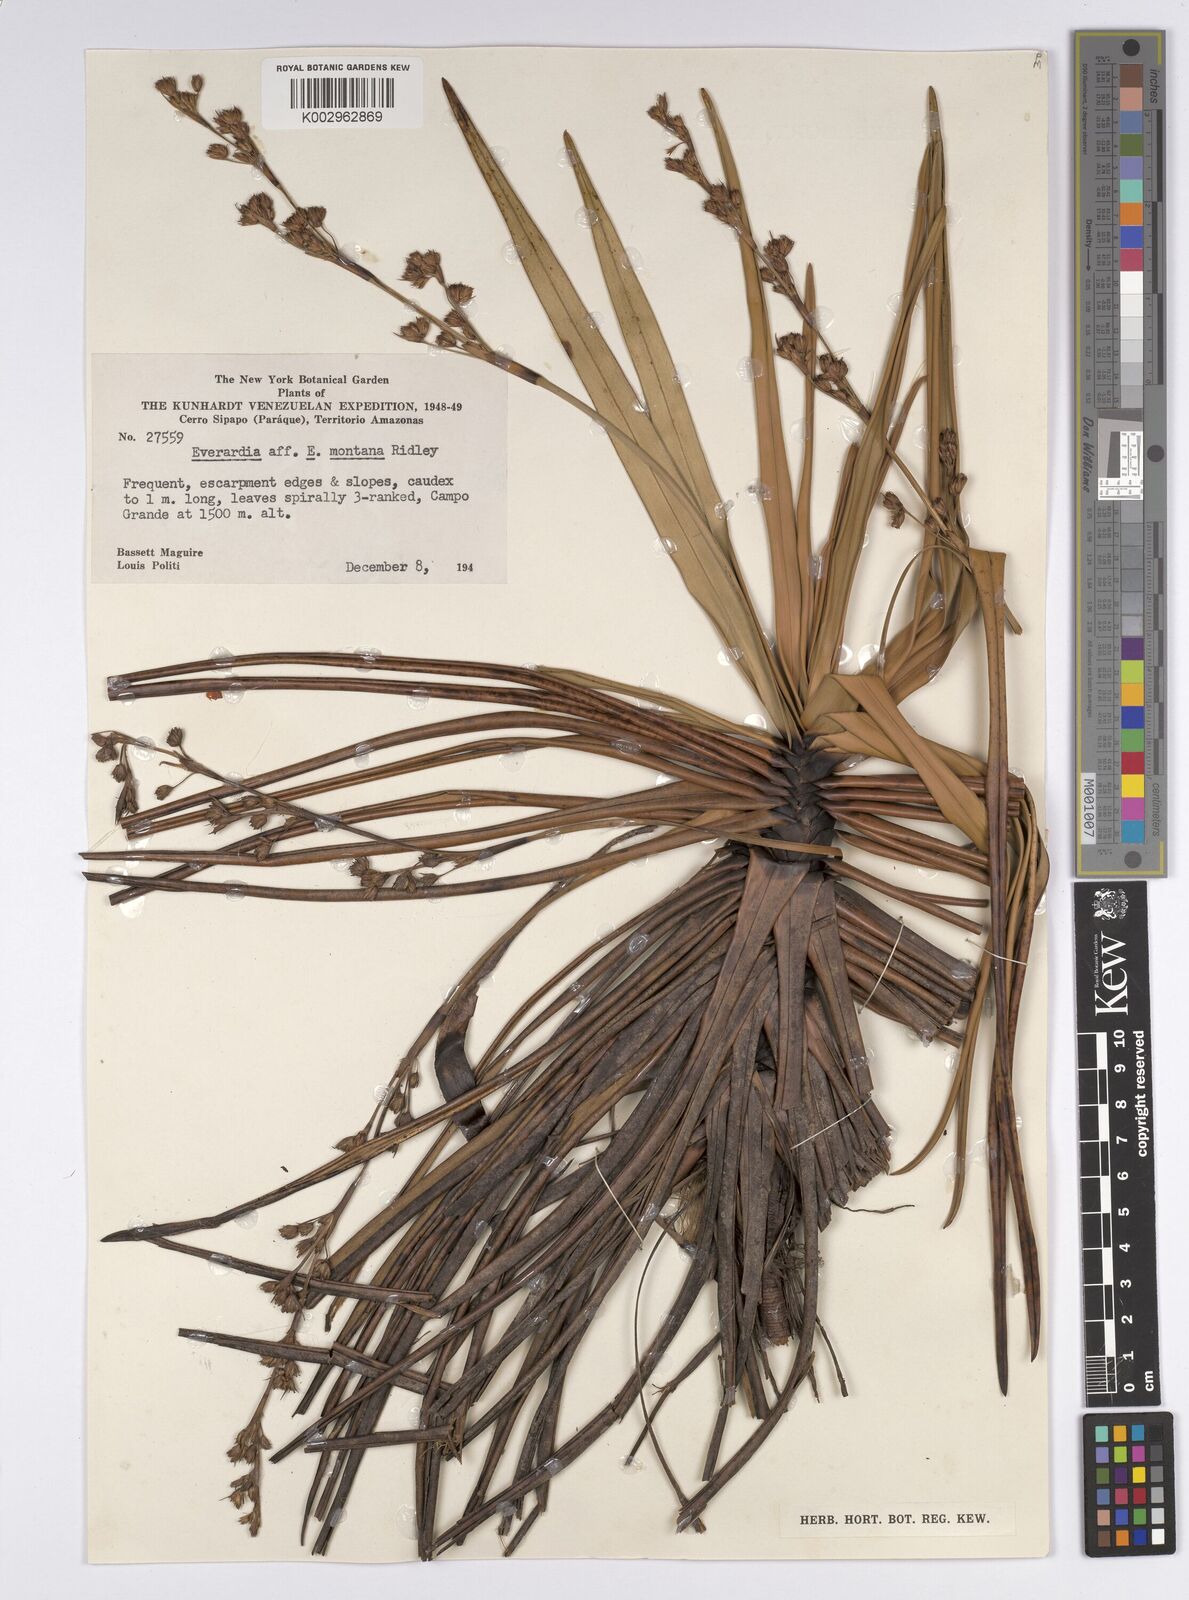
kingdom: Plantae
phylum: Tracheophyta
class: Liliopsida
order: Poales
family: Cyperaceae
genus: Cephalocarpus
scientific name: Cephalocarpus montanus
